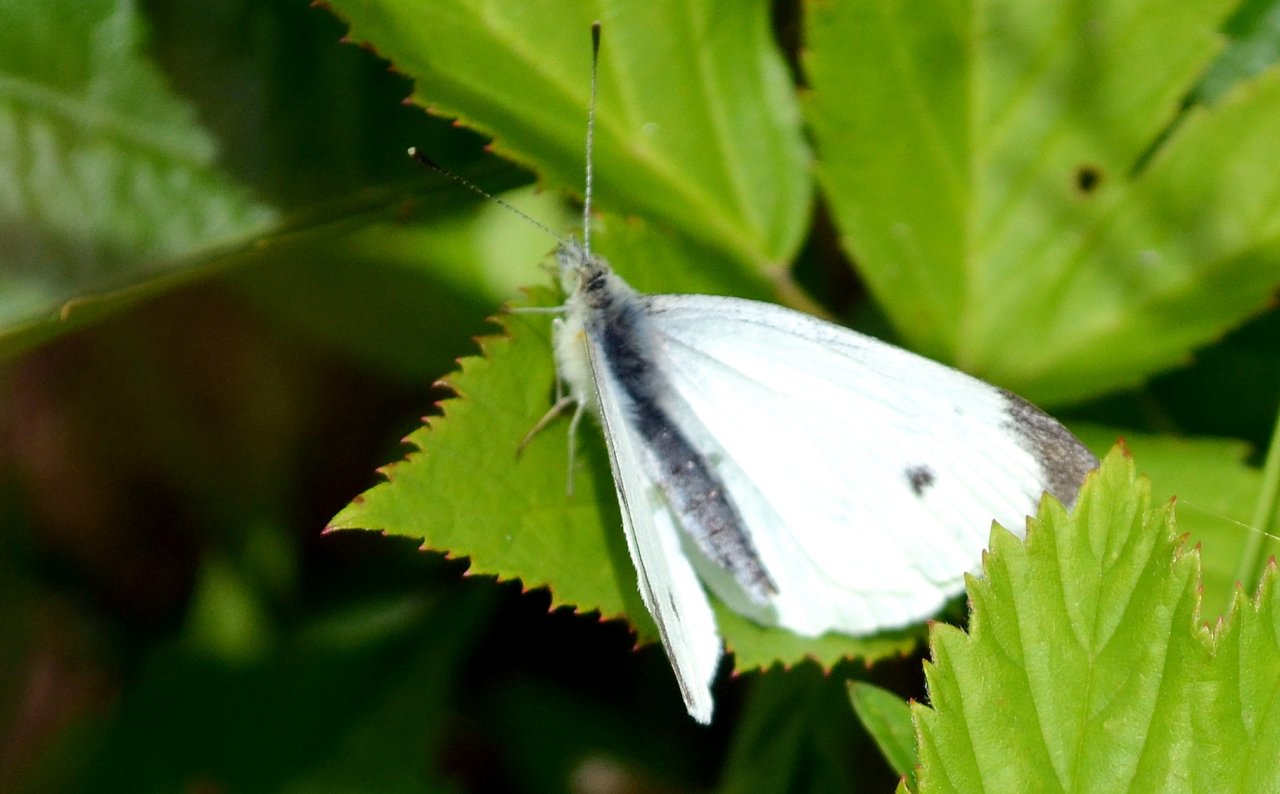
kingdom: Animalia
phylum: Arthropoda
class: Insecta
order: Lepidoptera
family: Pieridae
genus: Pieris
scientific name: Pieris rapae
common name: Cabbage White
